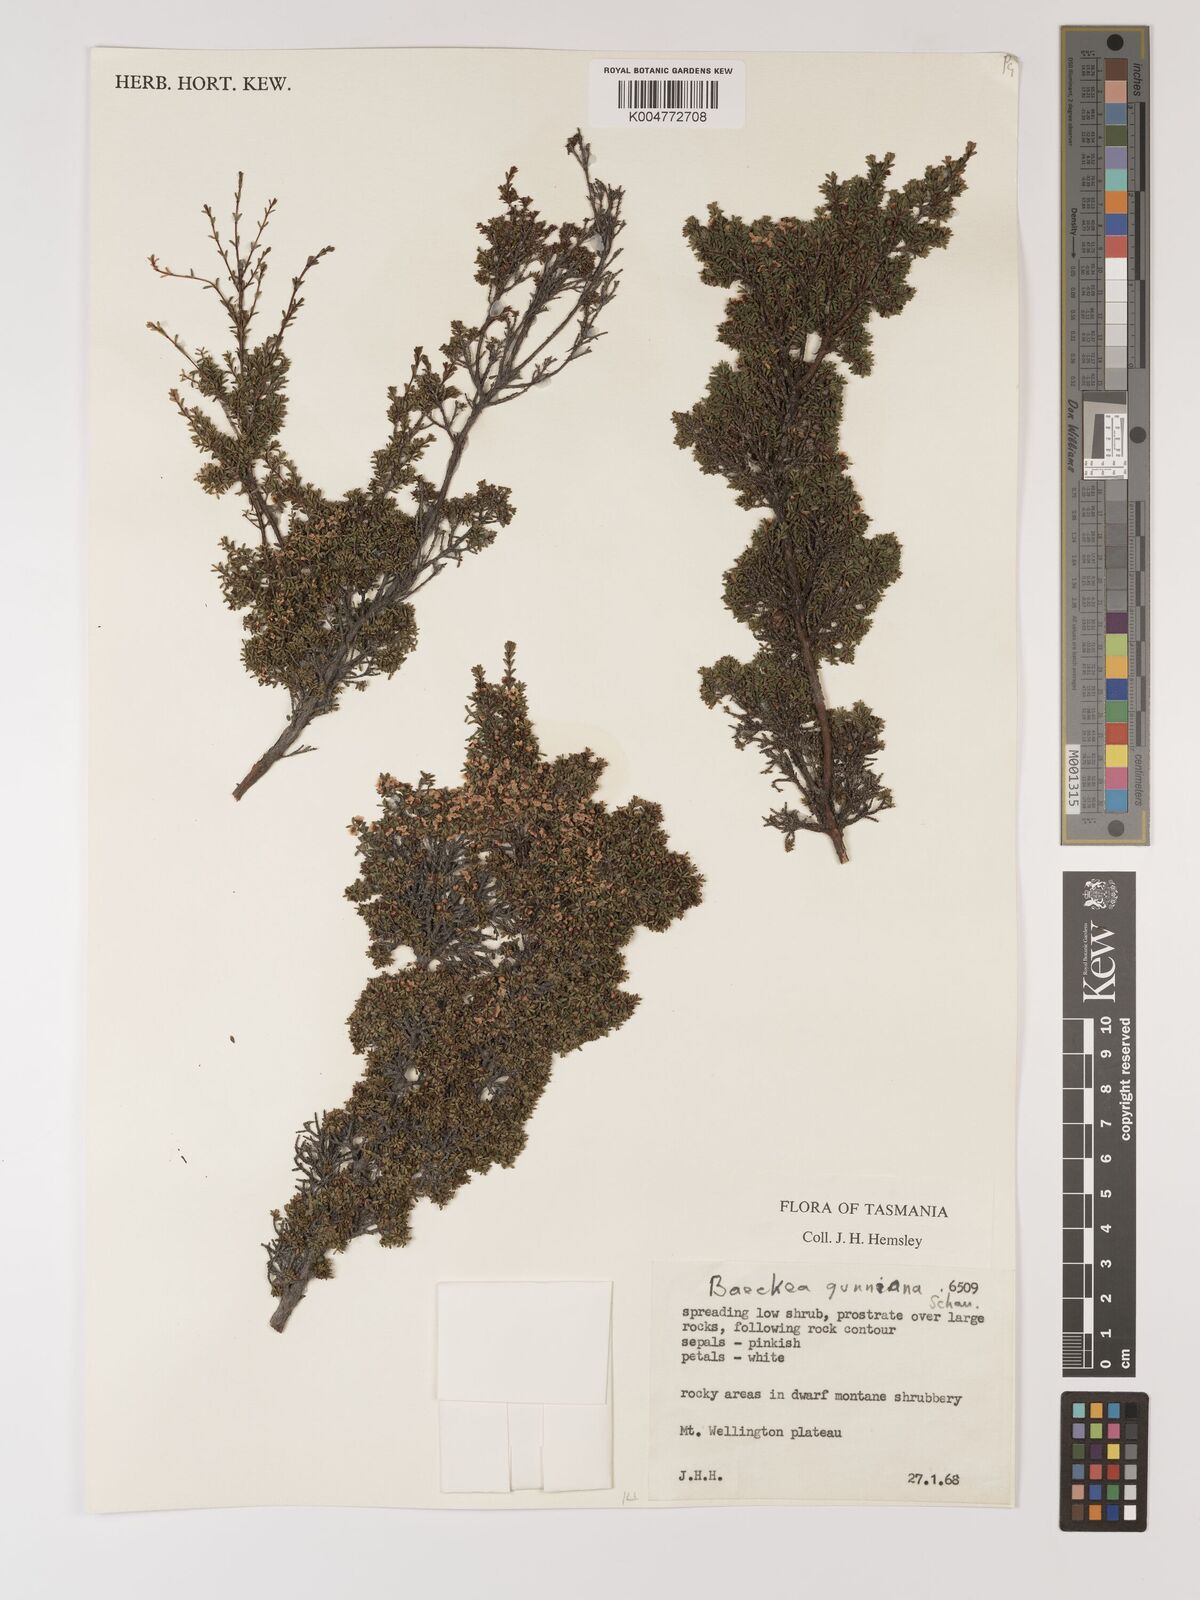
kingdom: Plantae
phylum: Tracheophyta
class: Magnoliopsida
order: Myrtales
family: Myrtaceae
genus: Baeckea
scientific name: Baeckea gunniana
